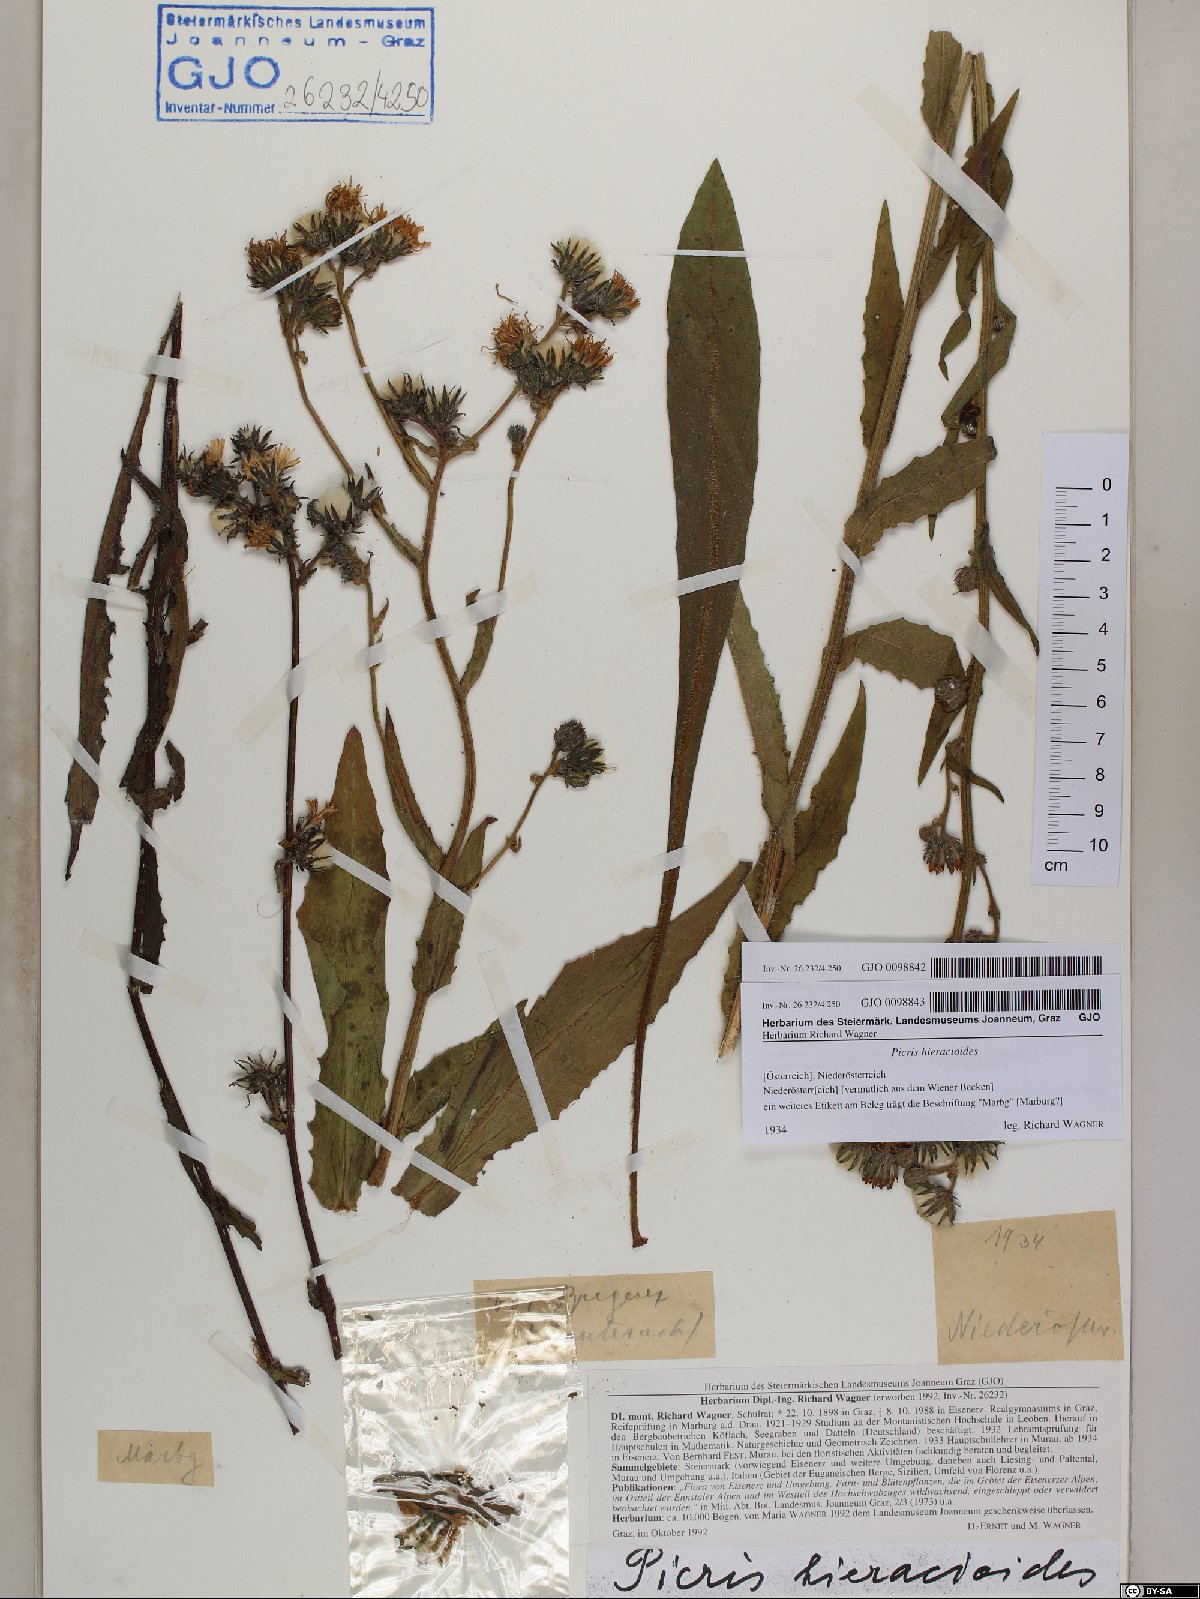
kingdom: Plantae
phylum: Tracheophyta
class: Magnoliopsida
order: Asterales
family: Asteraceae
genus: Picris
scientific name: Picris hieracioides
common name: Hawkweed oxtongue
